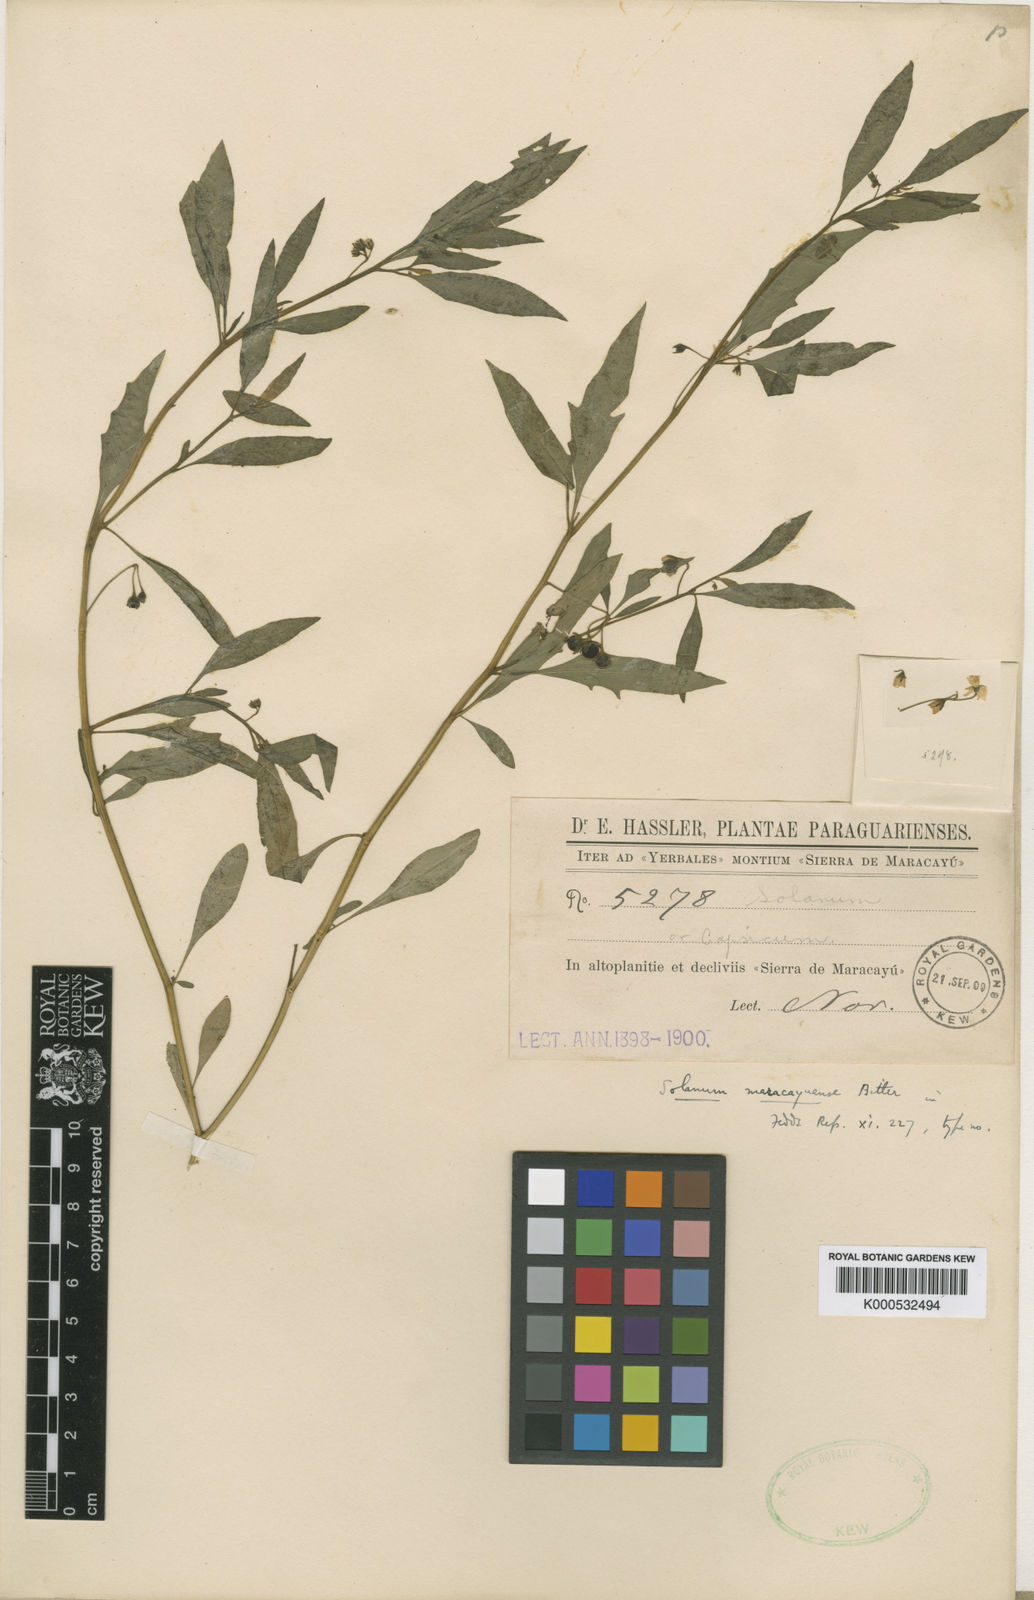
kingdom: Plantae
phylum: Tracheophyta
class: Magnoliopsida
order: Solanales
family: Solanaceae
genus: Solanum
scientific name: Solanum paucidens
